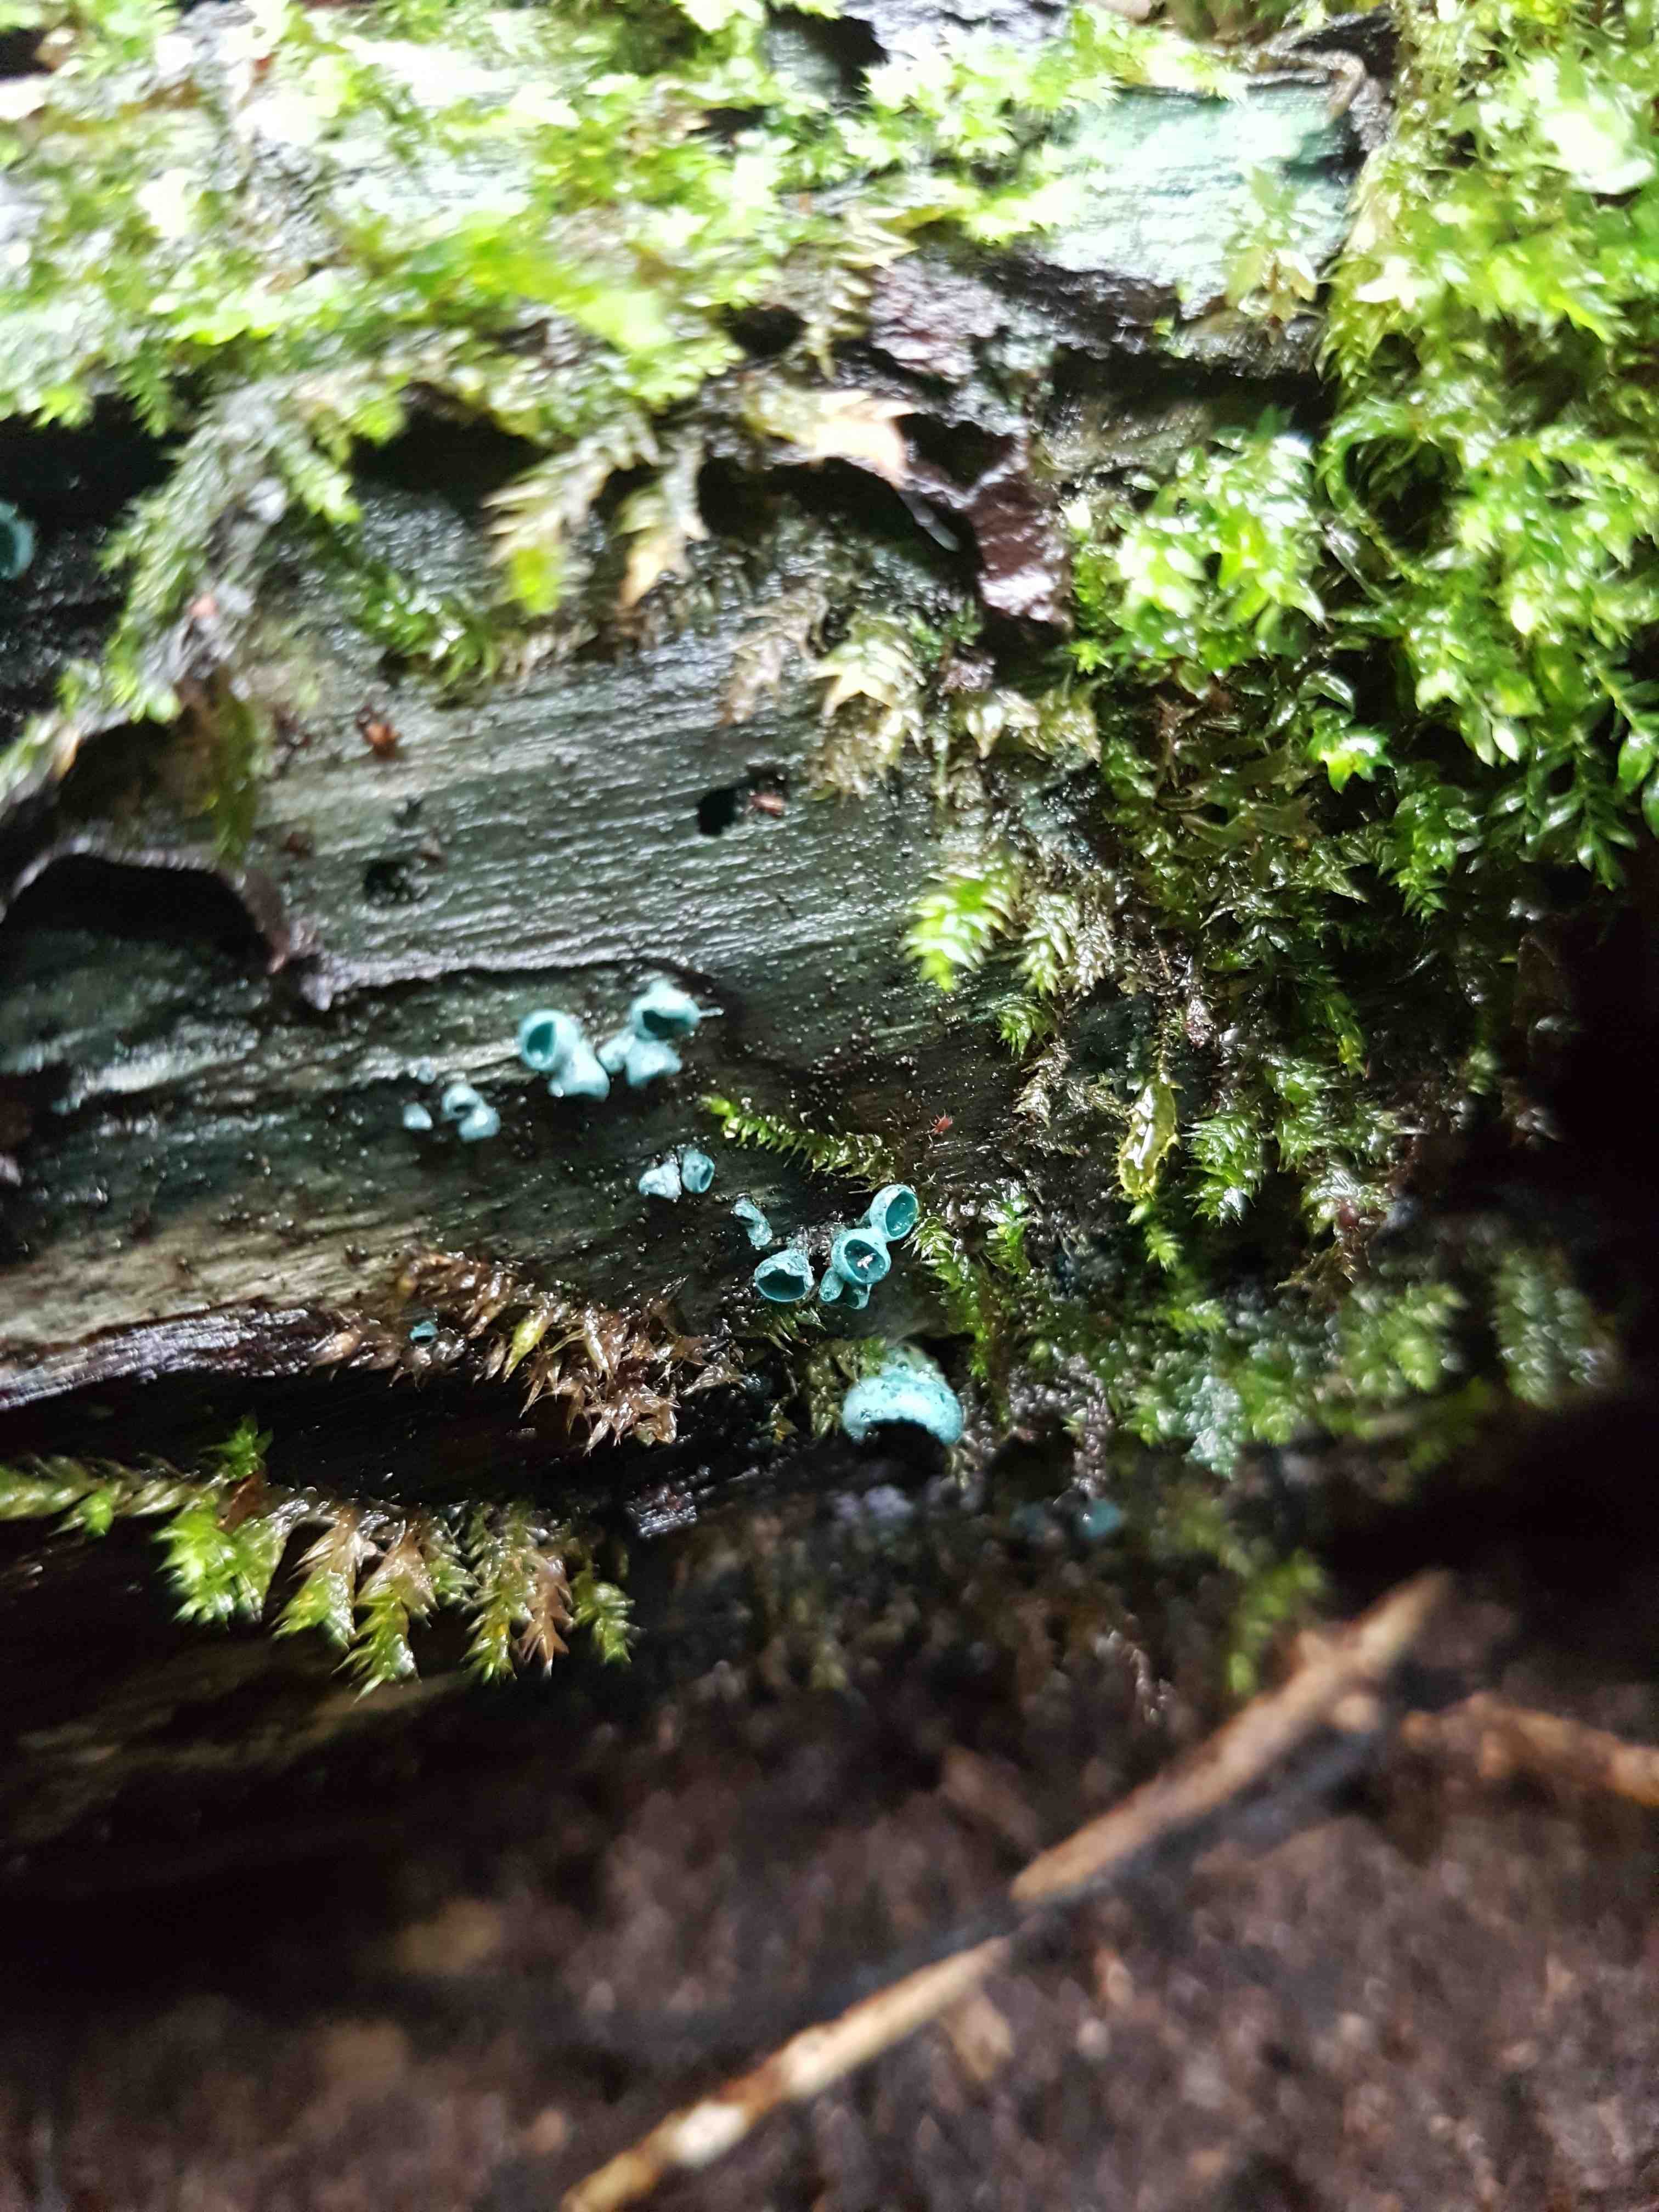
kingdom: Fungi
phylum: Ascomycota
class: Leotiomycetes
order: Helotiales
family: Chlorociboriaceae
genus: Chlorociboria
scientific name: Chlorociboria aeruginascens
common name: almindelig grønskive
